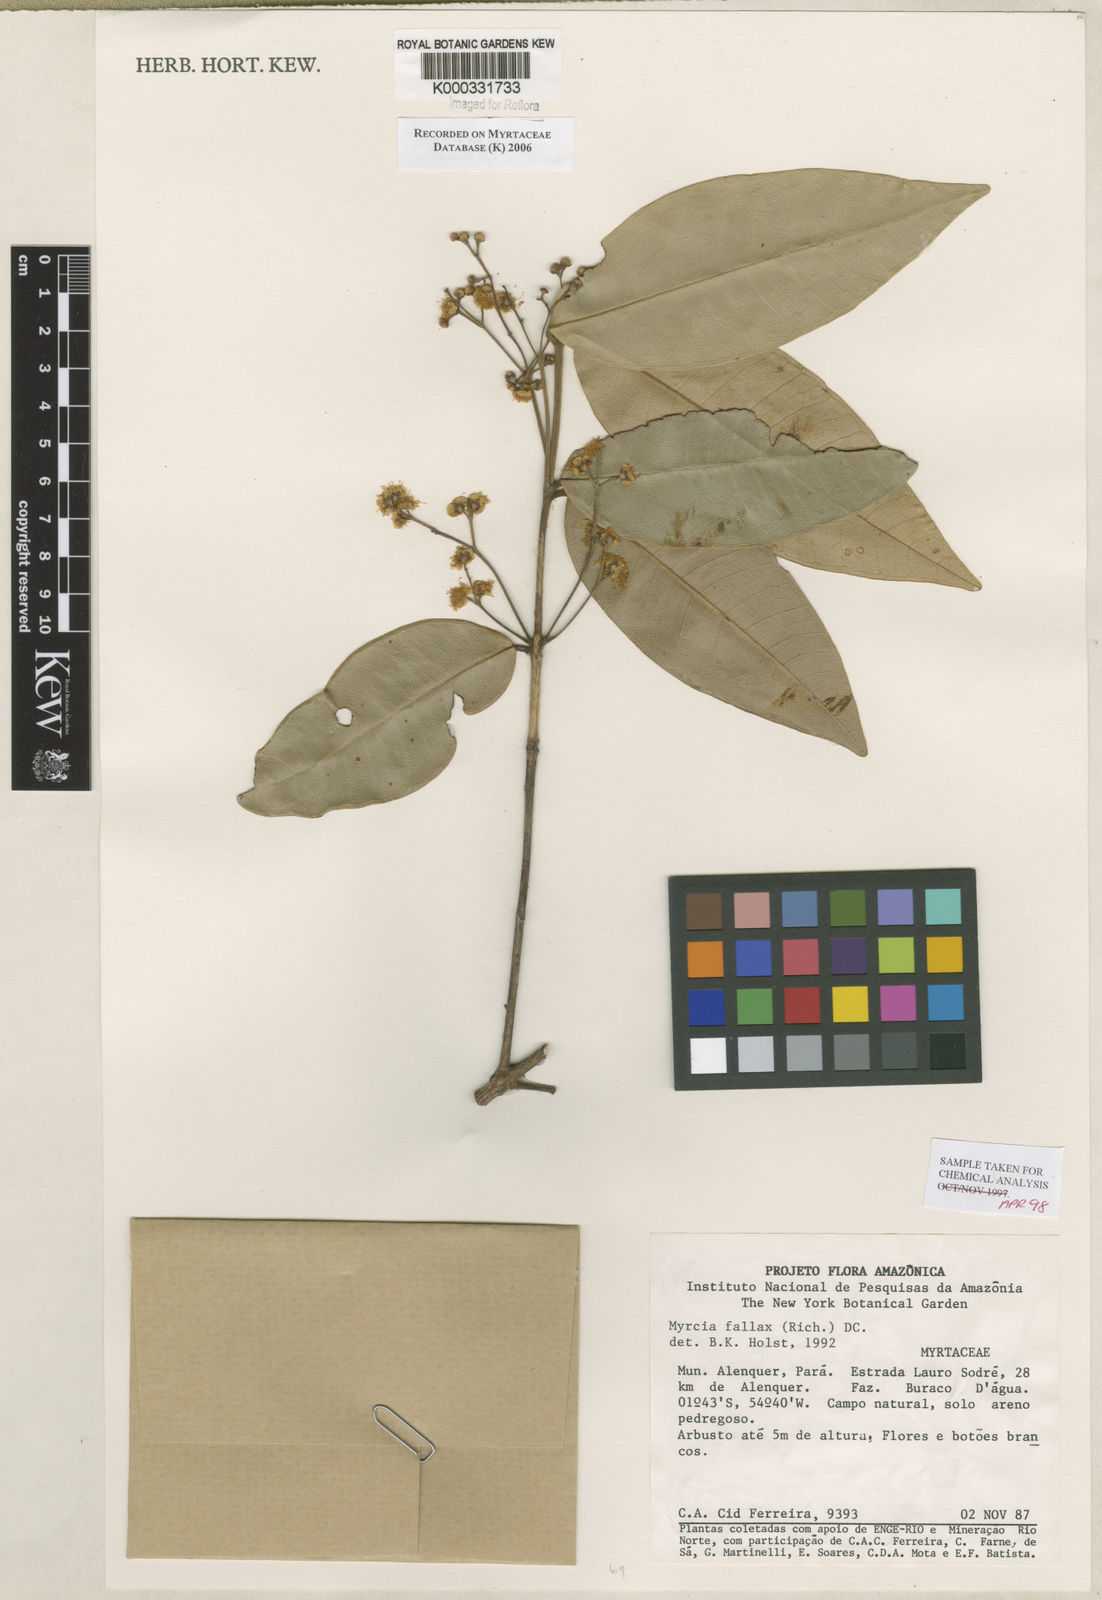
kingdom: Plantae
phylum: Tracheophyta
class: Magnoliopsida
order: Myrtales
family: Myrtaceae
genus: Myrcia
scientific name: Myrcia splendens
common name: Surinam cherry
